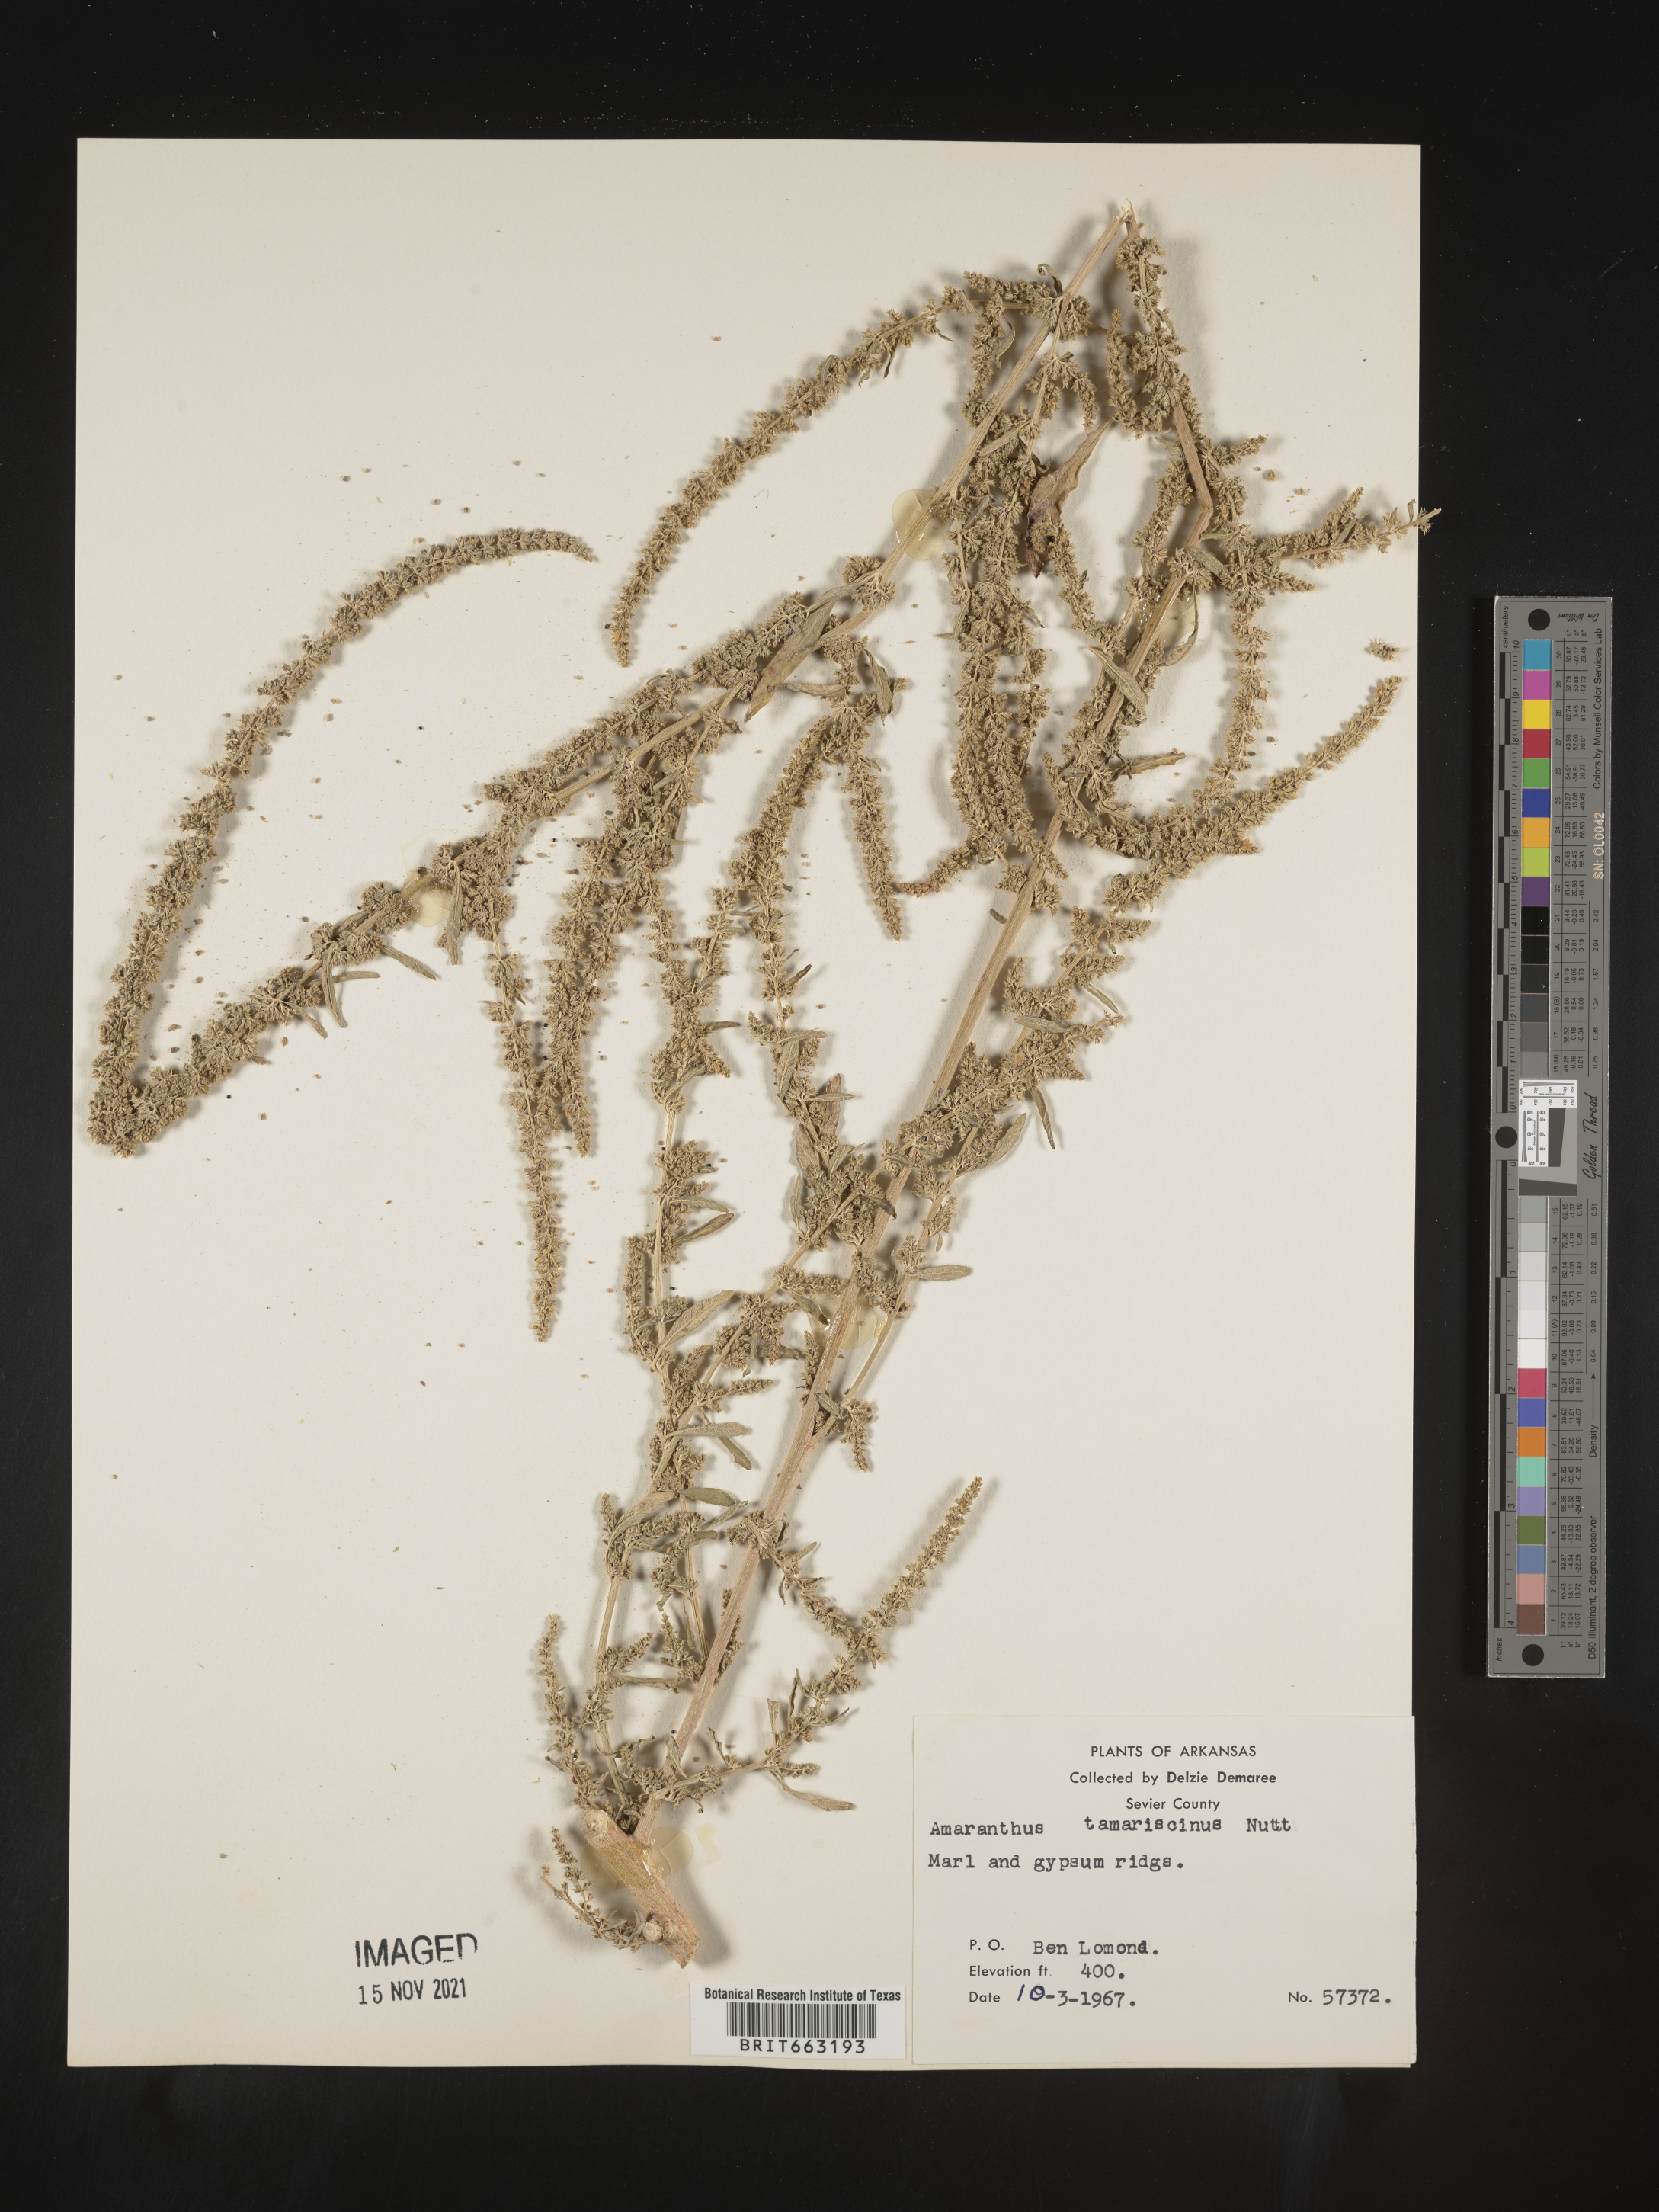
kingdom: Plantae
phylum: Tracheophyta
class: Magnoliopsida
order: Caryophyllales
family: Amaranthaceae
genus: Amaranthus
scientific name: Amaranthus tamariscinus
